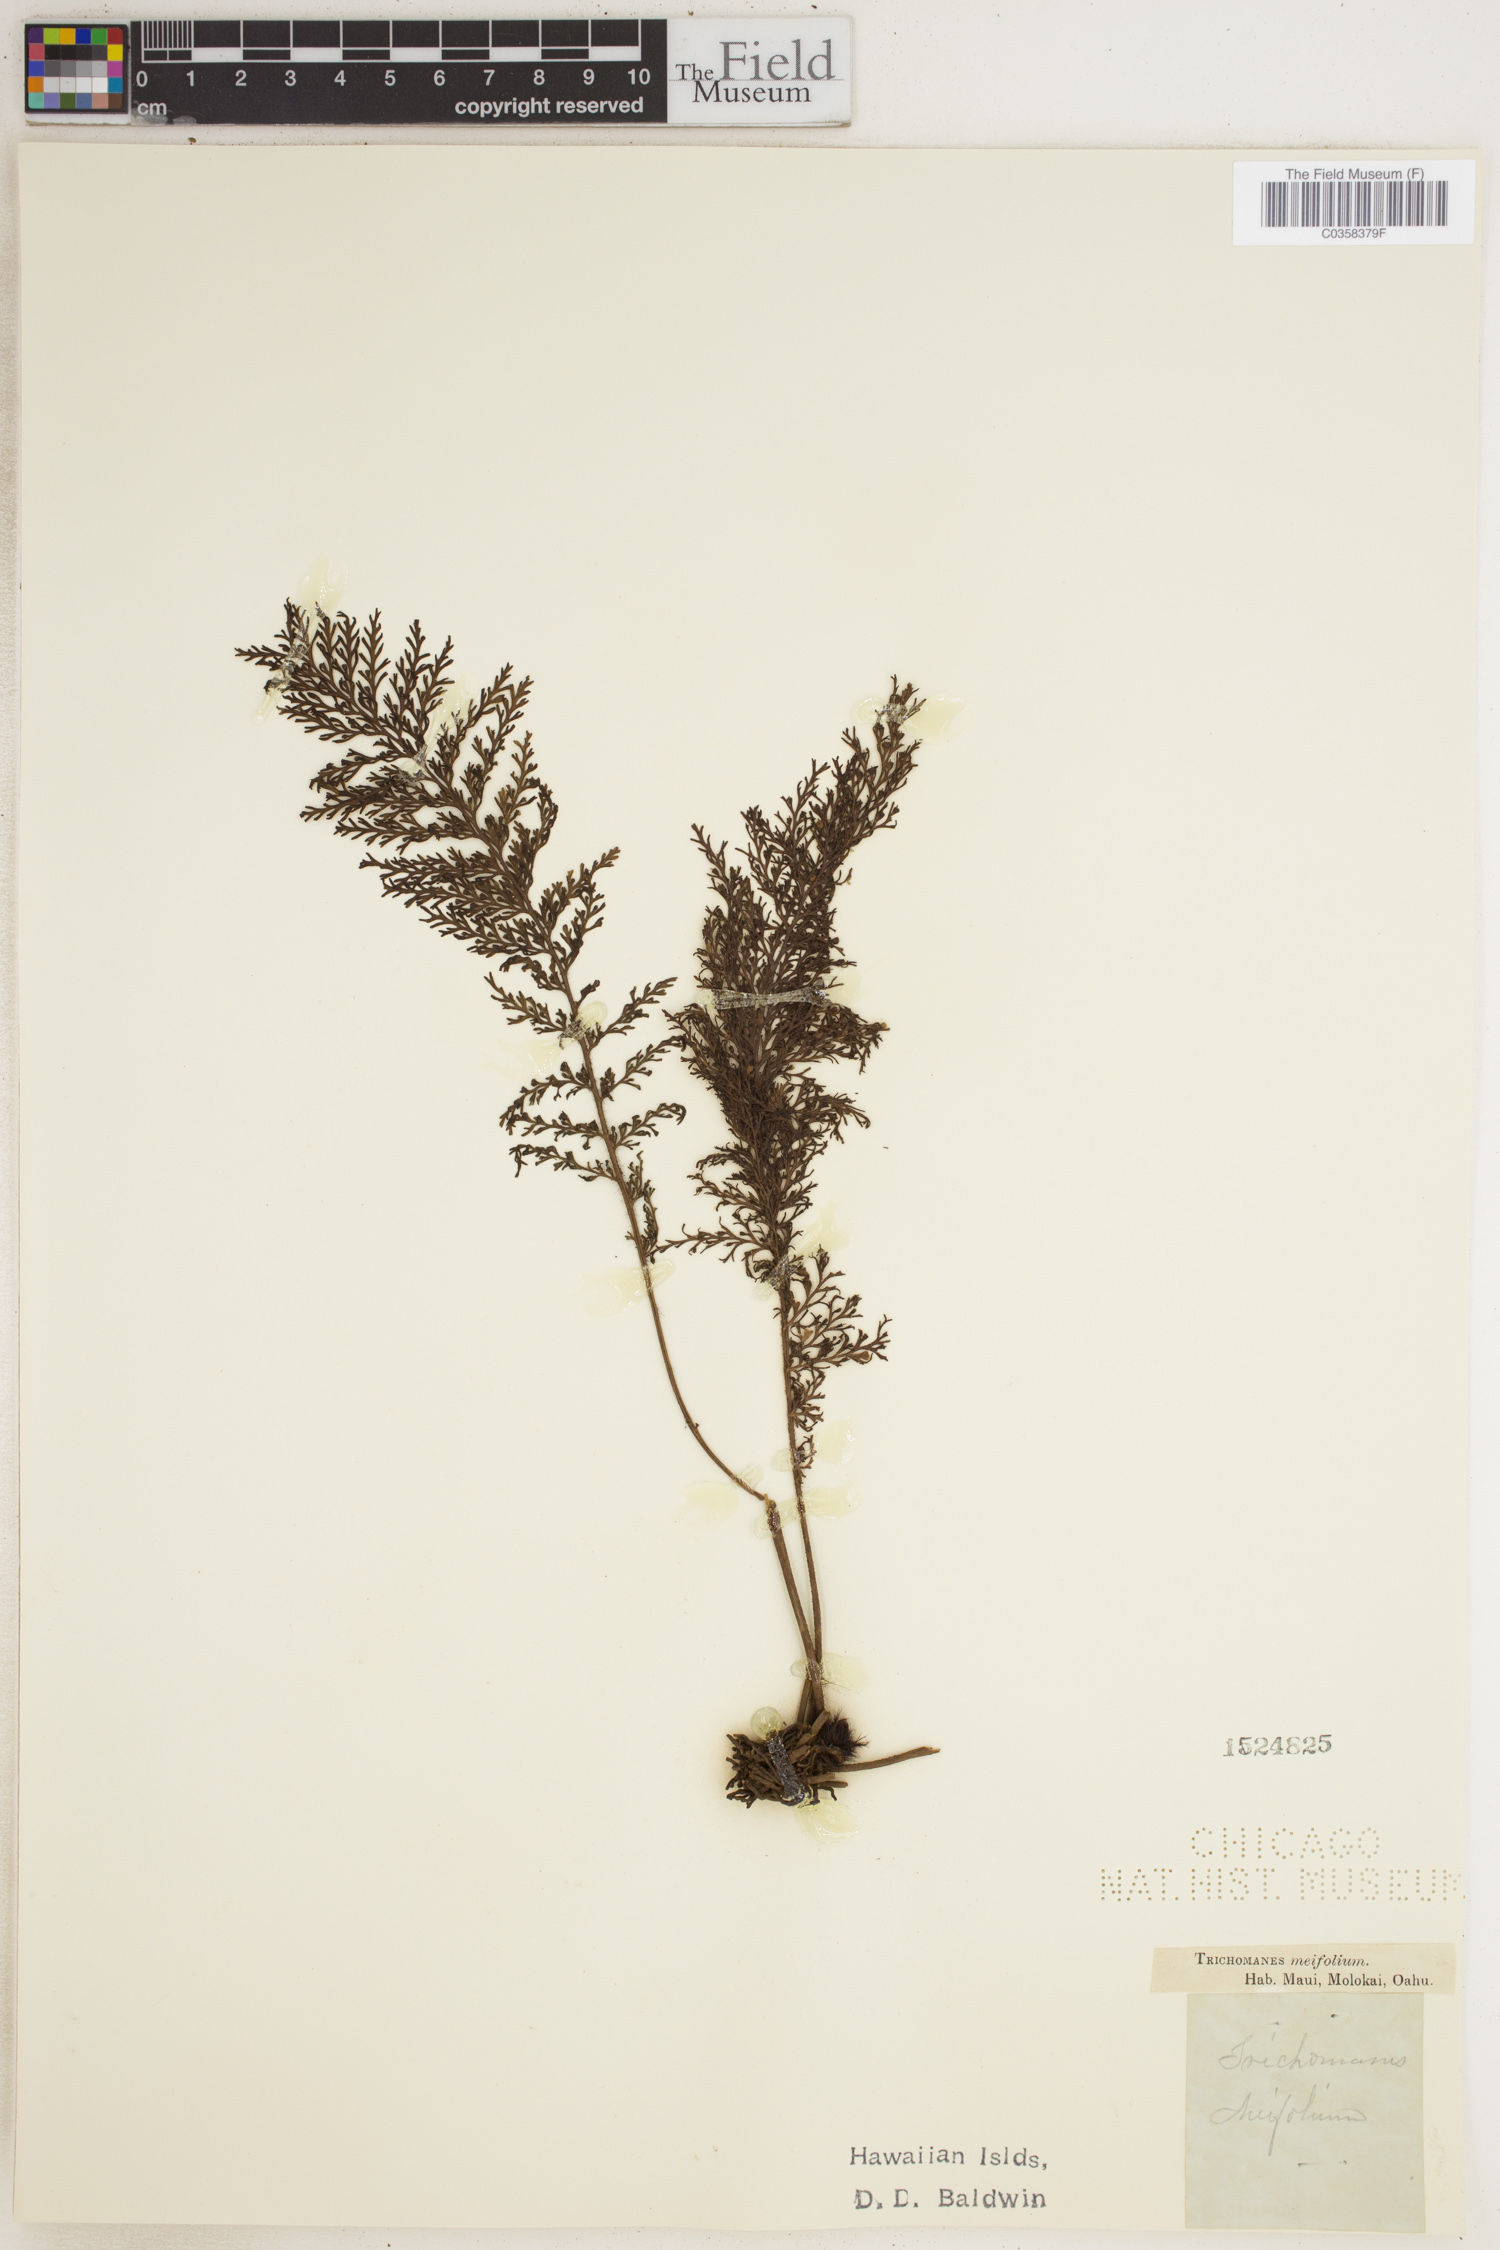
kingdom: Plantae
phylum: Tracheophyta
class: Polypodiopsida
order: Hymenophyllales
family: Hymenophyllaceae
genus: Abrodictyum
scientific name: Abrodictyum parviflorum
